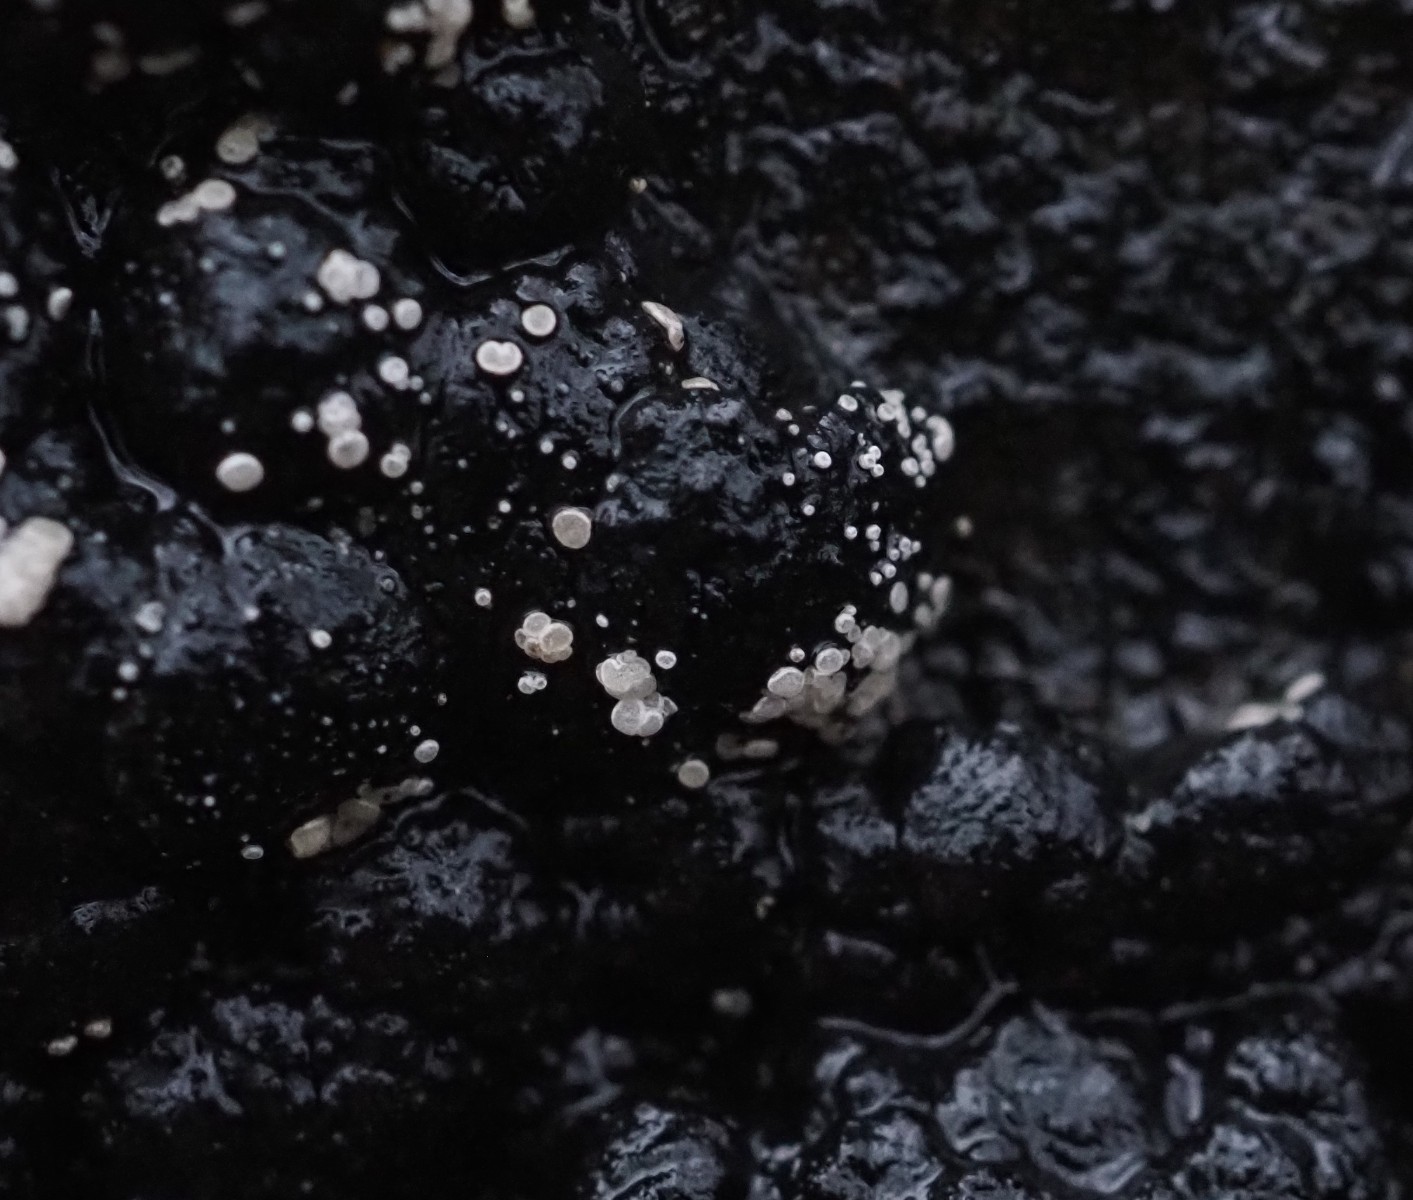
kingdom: Fungi
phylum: Ascomycota
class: Leotiomycetes
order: Helotiales
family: Hyaloscyphaceae
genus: Polydesmia
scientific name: Polydesmia pruinosa
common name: dunskive
